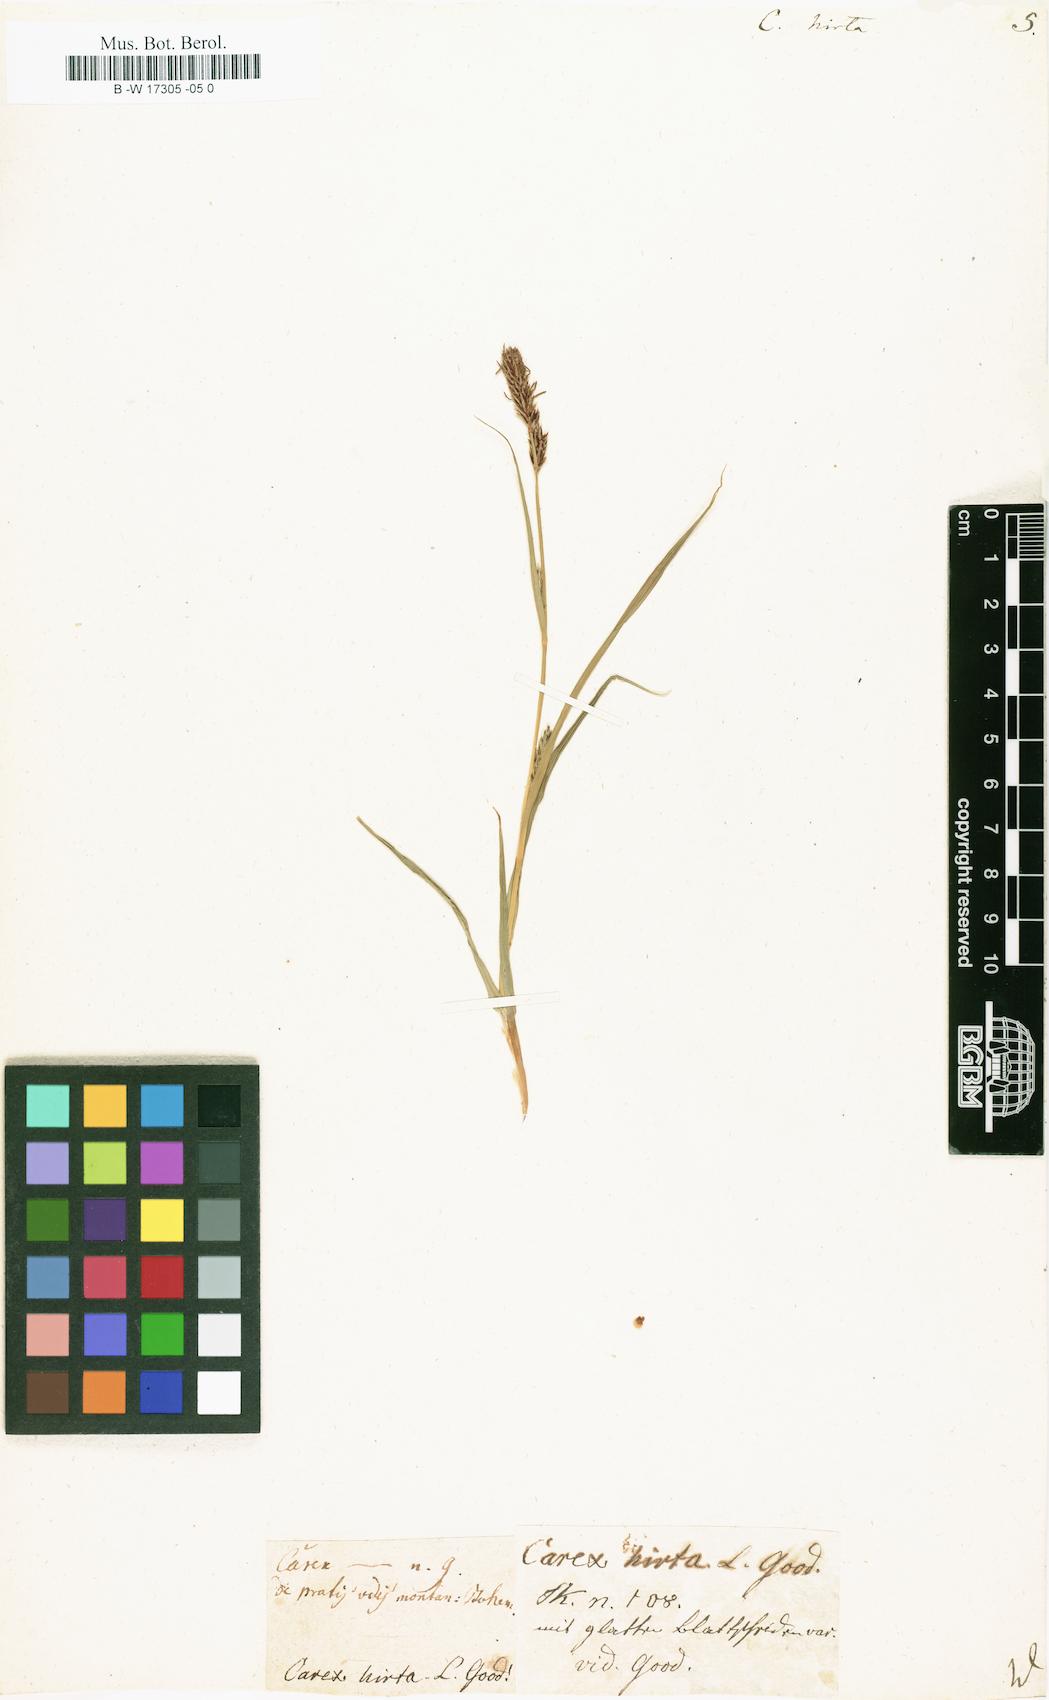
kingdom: Plantae
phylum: Tracheophyta
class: Liliopsida
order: Poales
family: Cyperaceae
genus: Carex
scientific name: Carex hirta
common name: Hairy sedge
